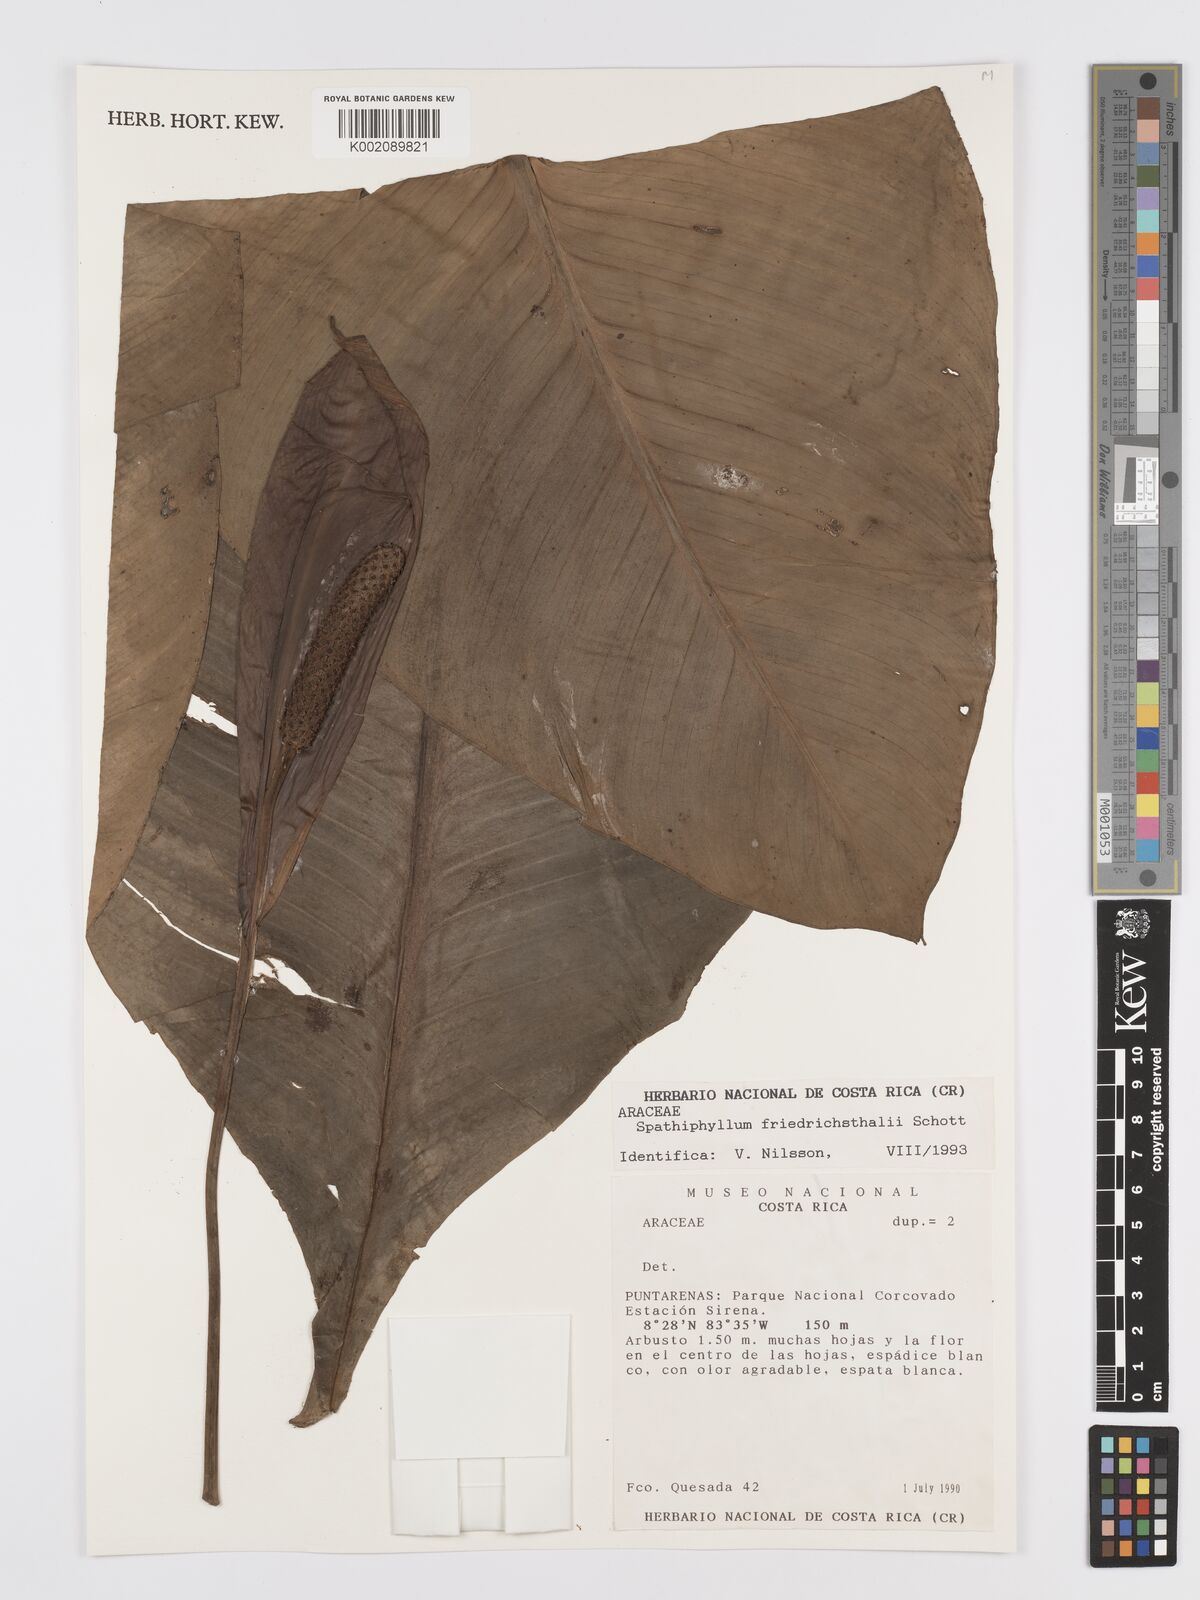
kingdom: Plantae
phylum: Tracheophyta
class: Liliopsida
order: Alismatales
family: Araceae
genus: Spathiphyllum
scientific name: Spathiphyllum friedrichsthalii
